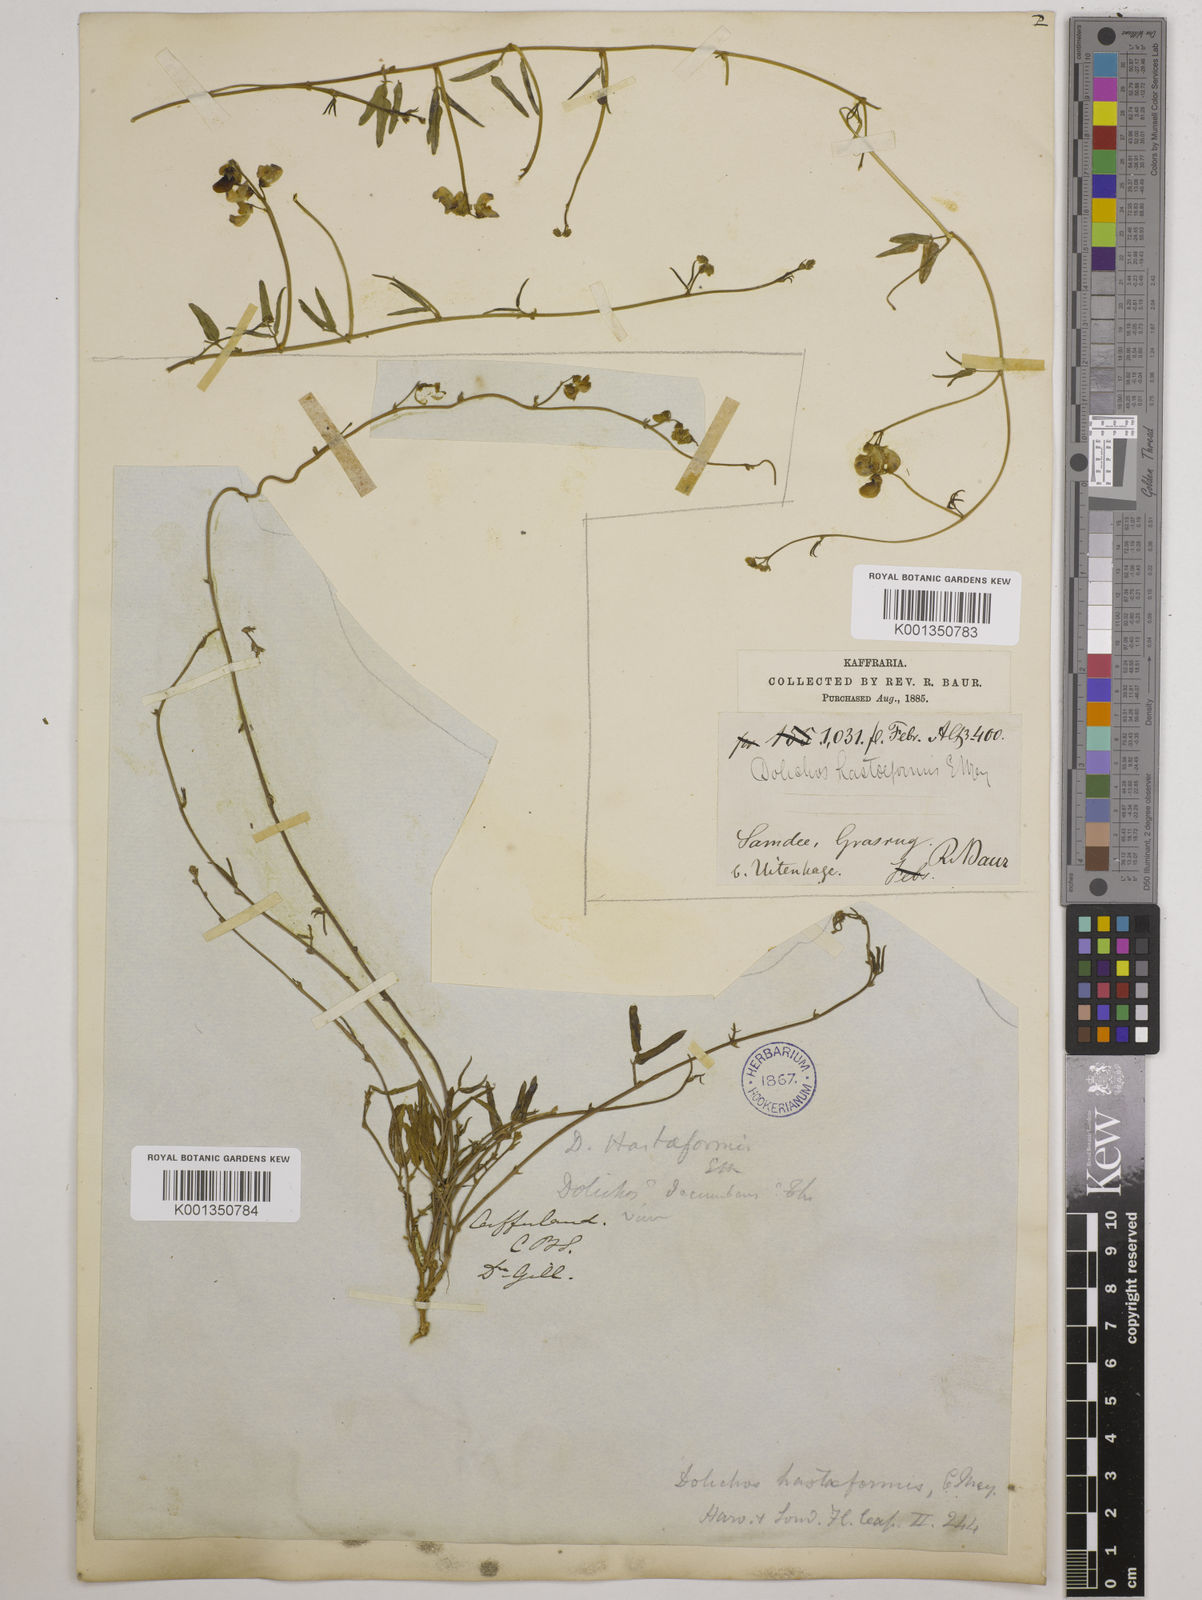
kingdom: Plantae
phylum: Tracheophyta
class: Magnoliopsida
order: Fabales
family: Fabaceae
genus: Dolichos
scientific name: Dolichos
